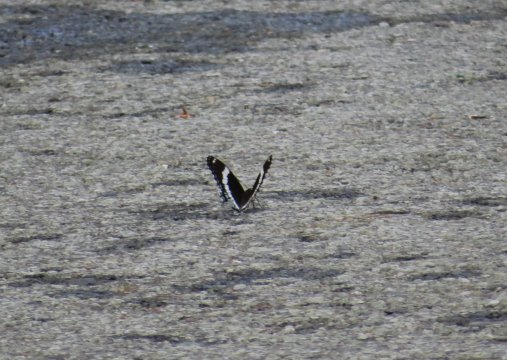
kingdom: Animalia
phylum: Arthropoda
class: Insecta
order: Lepidoptera
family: Nymphalidae
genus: Limenitis
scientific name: Limenitis arthemis
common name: Red-spotted Admiral
